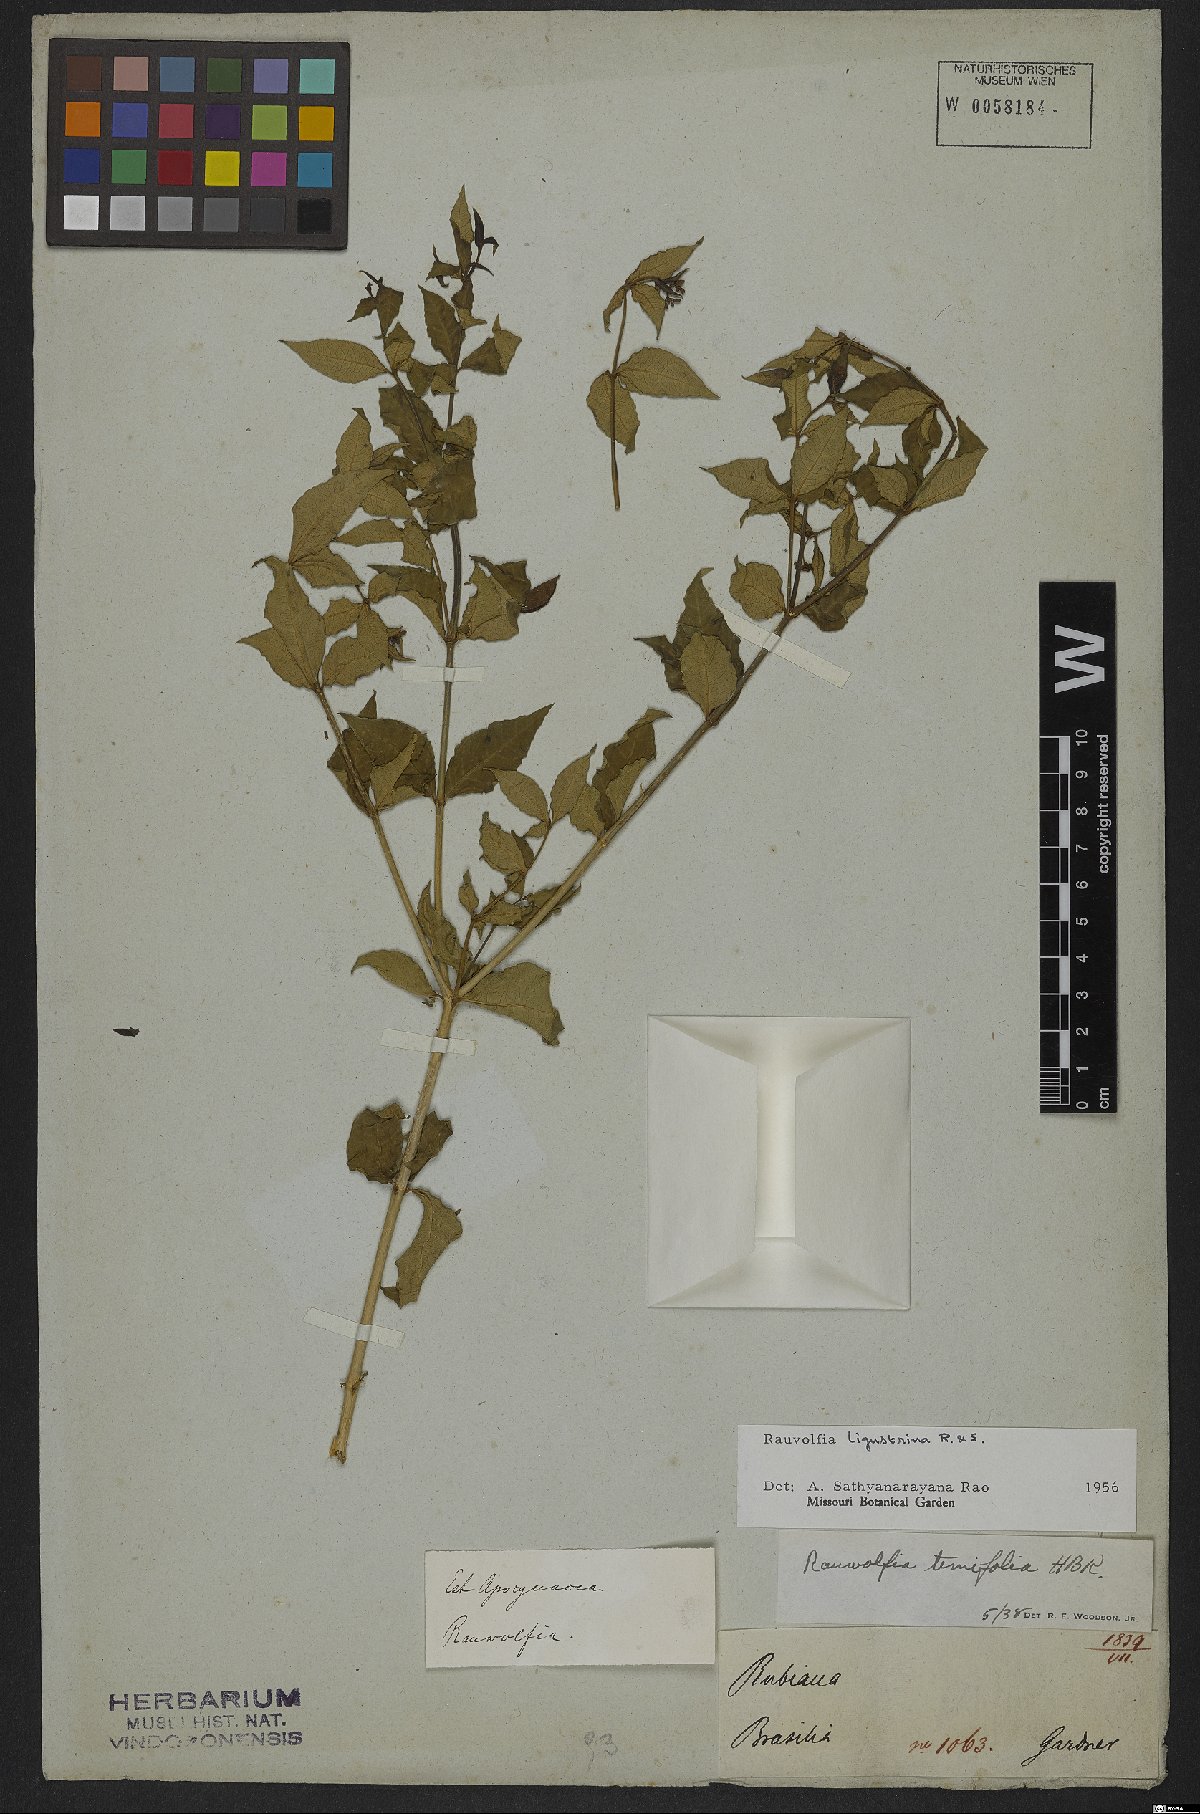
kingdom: Plantae
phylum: Tracheophyta
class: Magnoliopsida
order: Gentianales
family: Apocynaceae
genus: Rauvolfia
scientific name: Rauvolfia ligustrina
